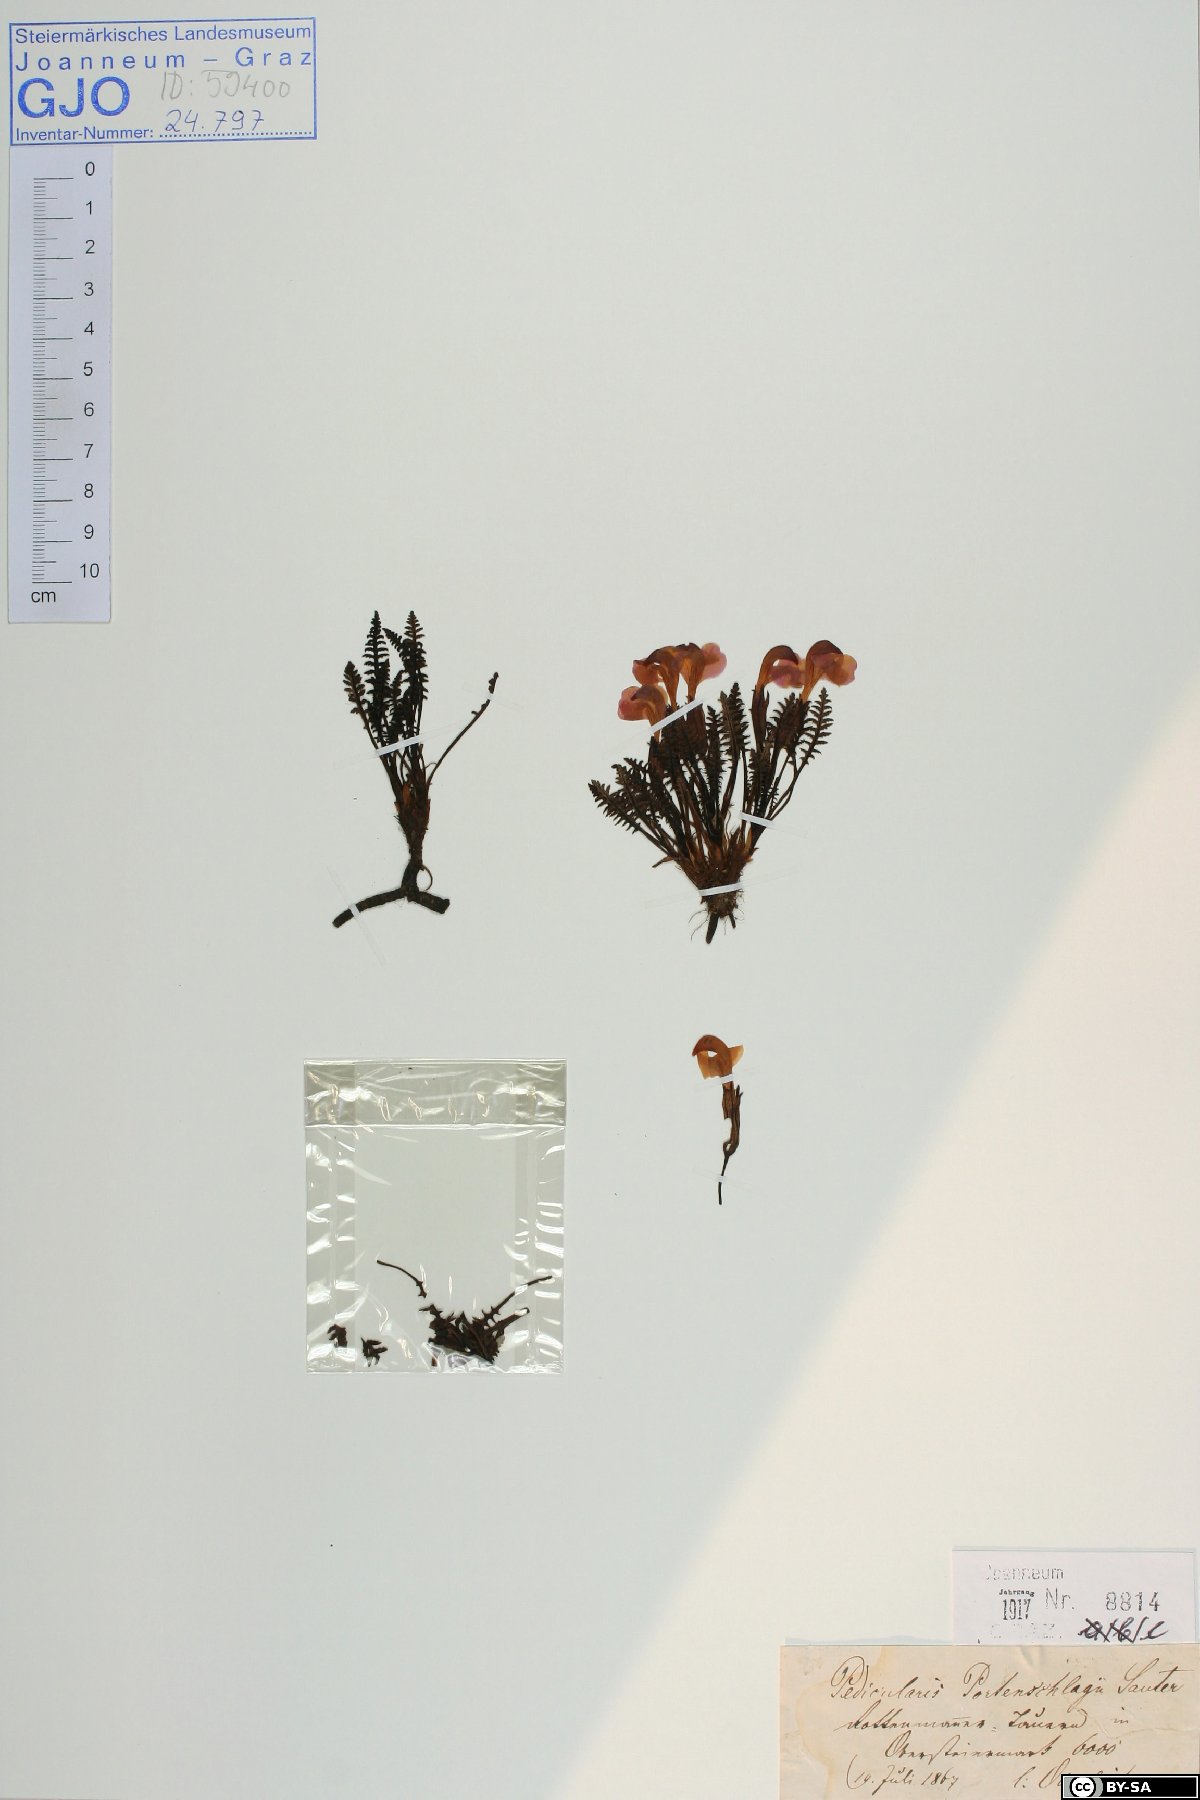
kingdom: Plantae
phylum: Tracheophyta
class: Magnoliopsida
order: Lamiales
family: Orobanchaceae
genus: Pedicularis
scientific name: Pedicularis portenschlagii
